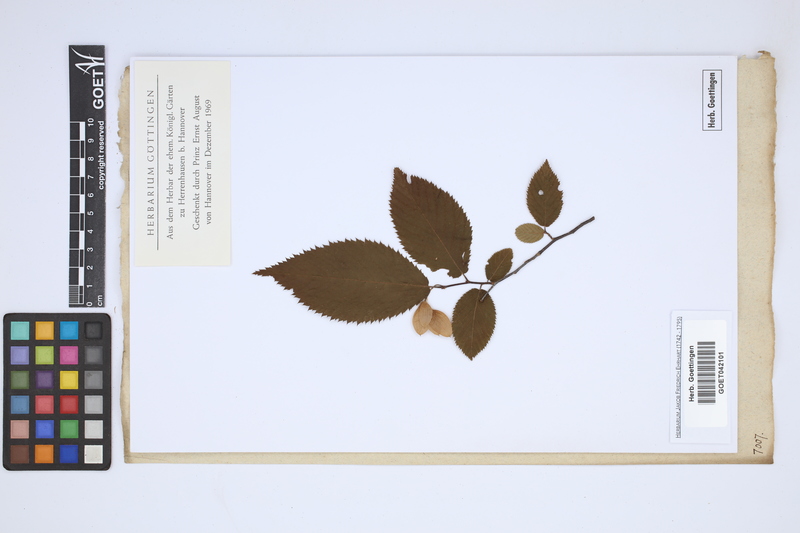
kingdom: Plantae
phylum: Tracheophyta
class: Magnoliopsida
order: Fagales
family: Betulaceae
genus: Carpinus
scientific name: Carpinus
